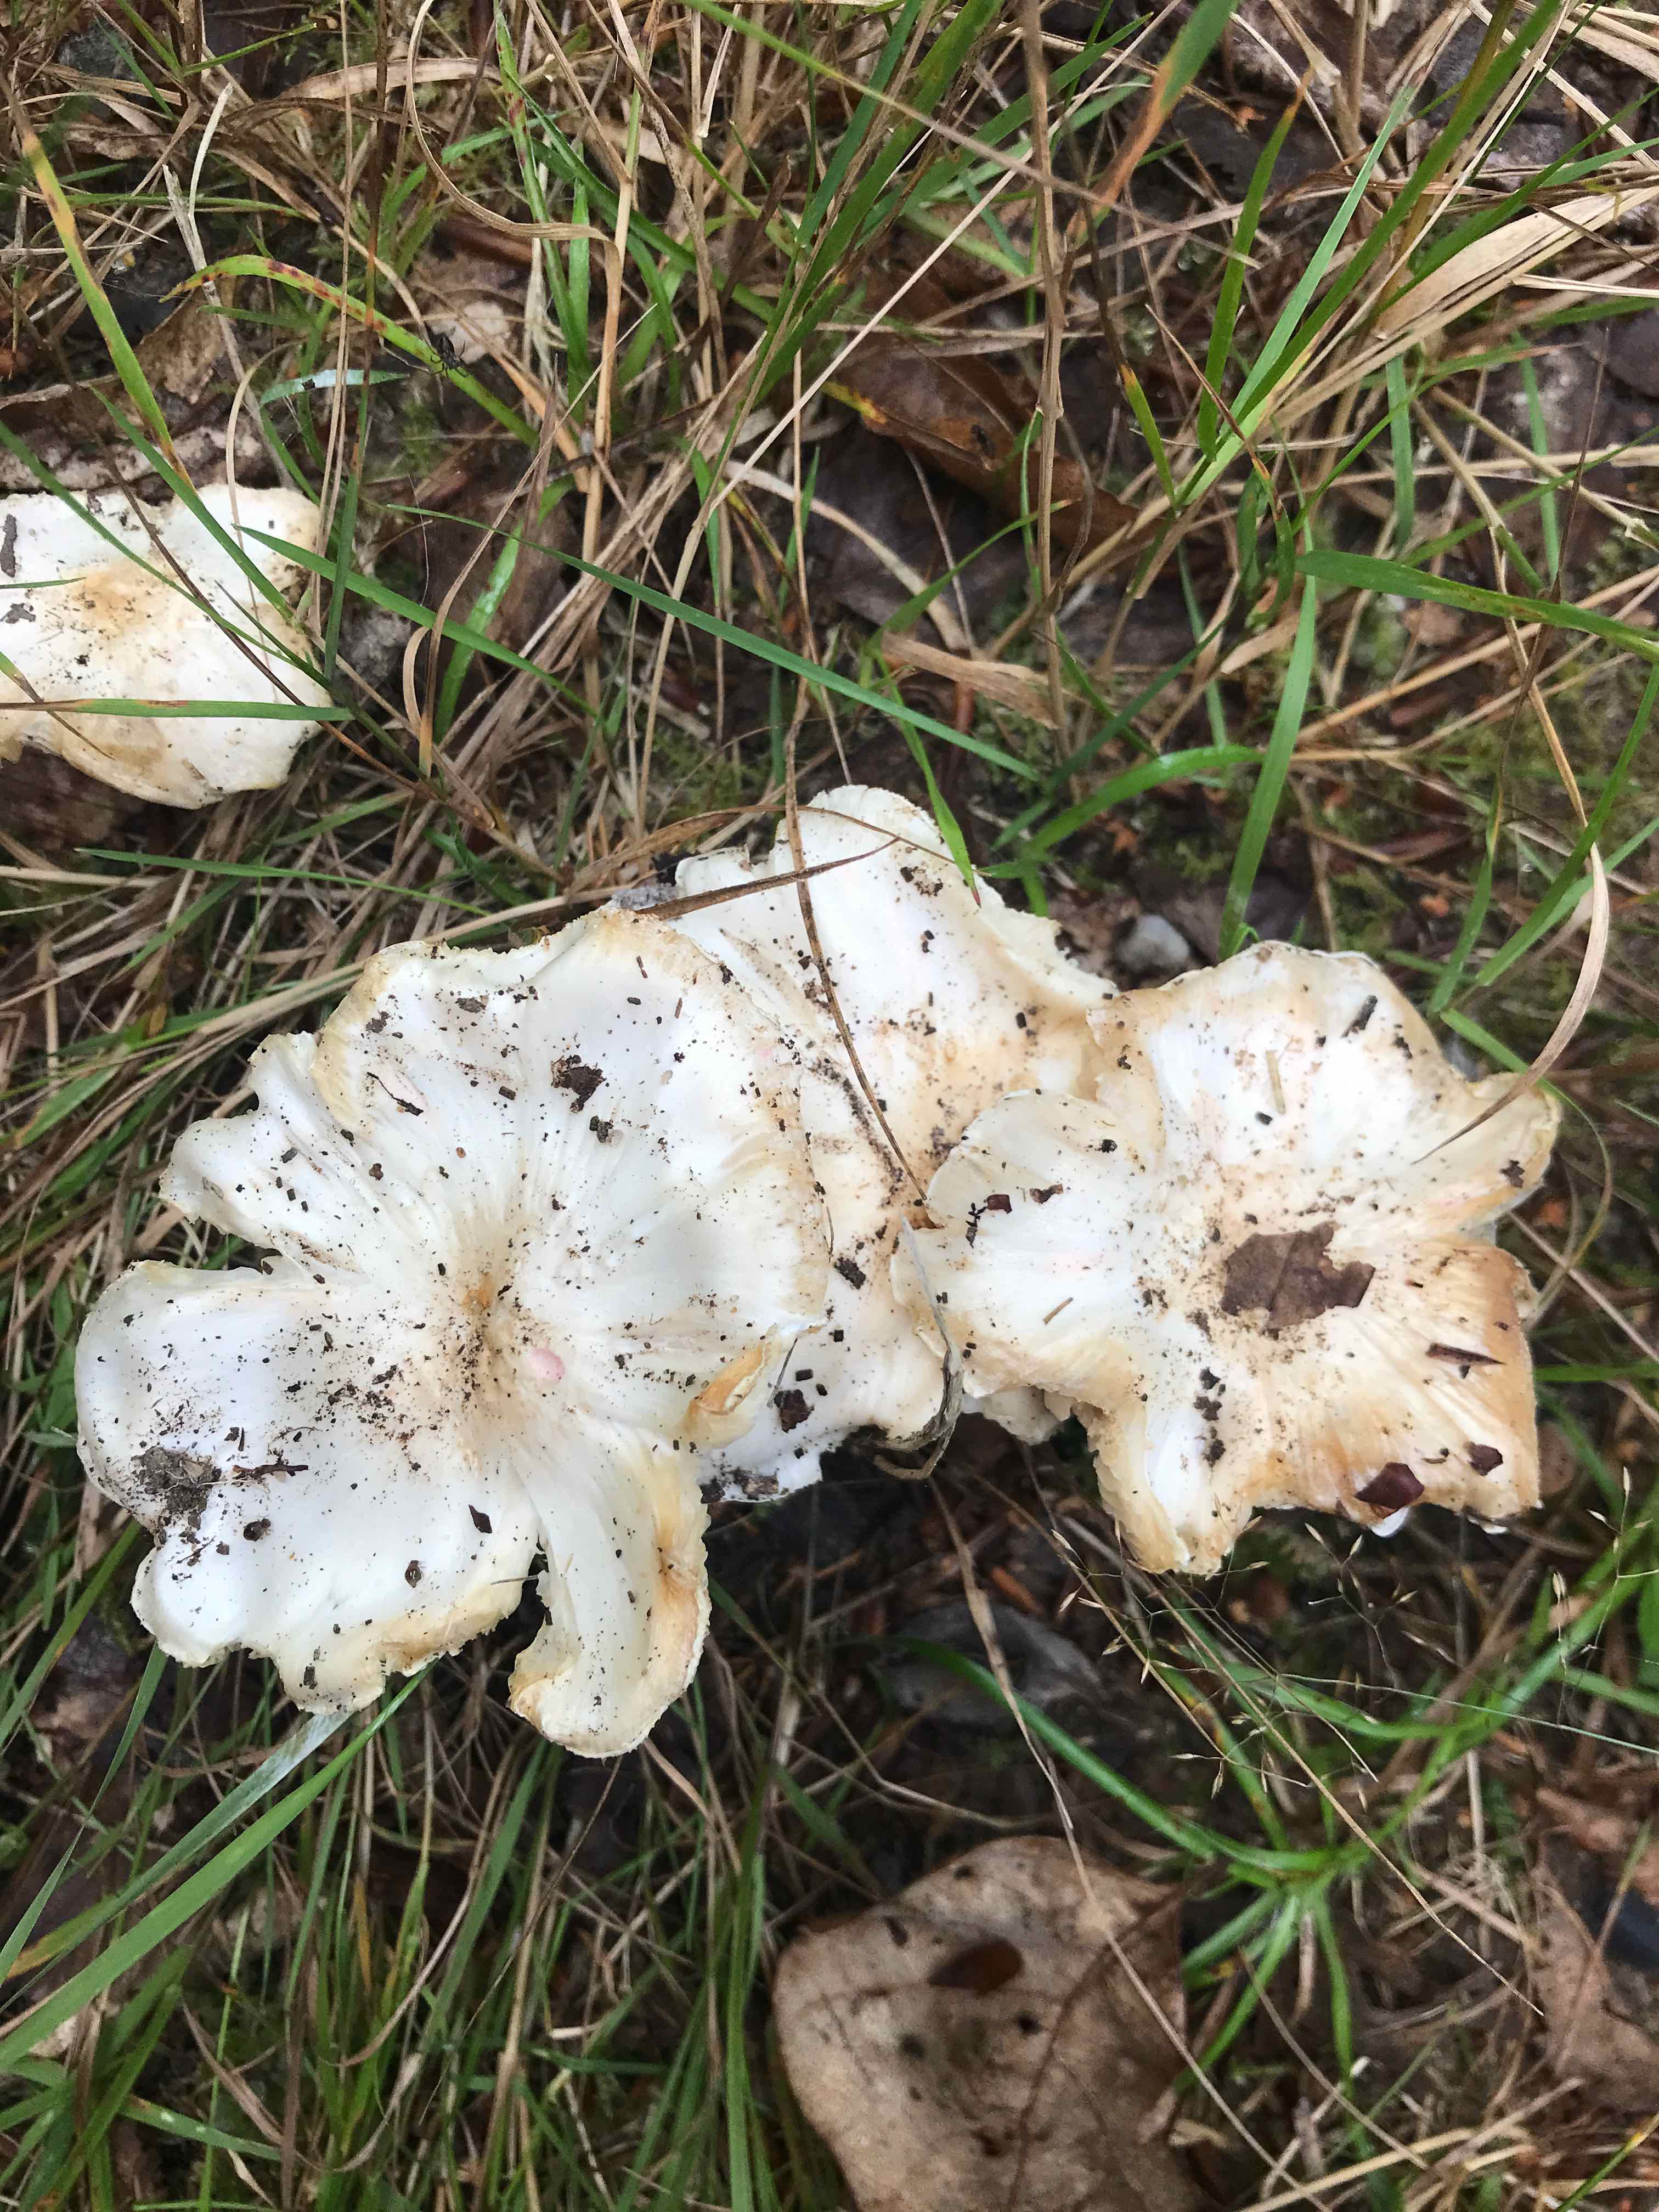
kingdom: Fungi
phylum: Basidiomycota
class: Agaricomycetes
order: Agaricales
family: Tricholomataceae
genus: Tricholoma
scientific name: Tricholoma
